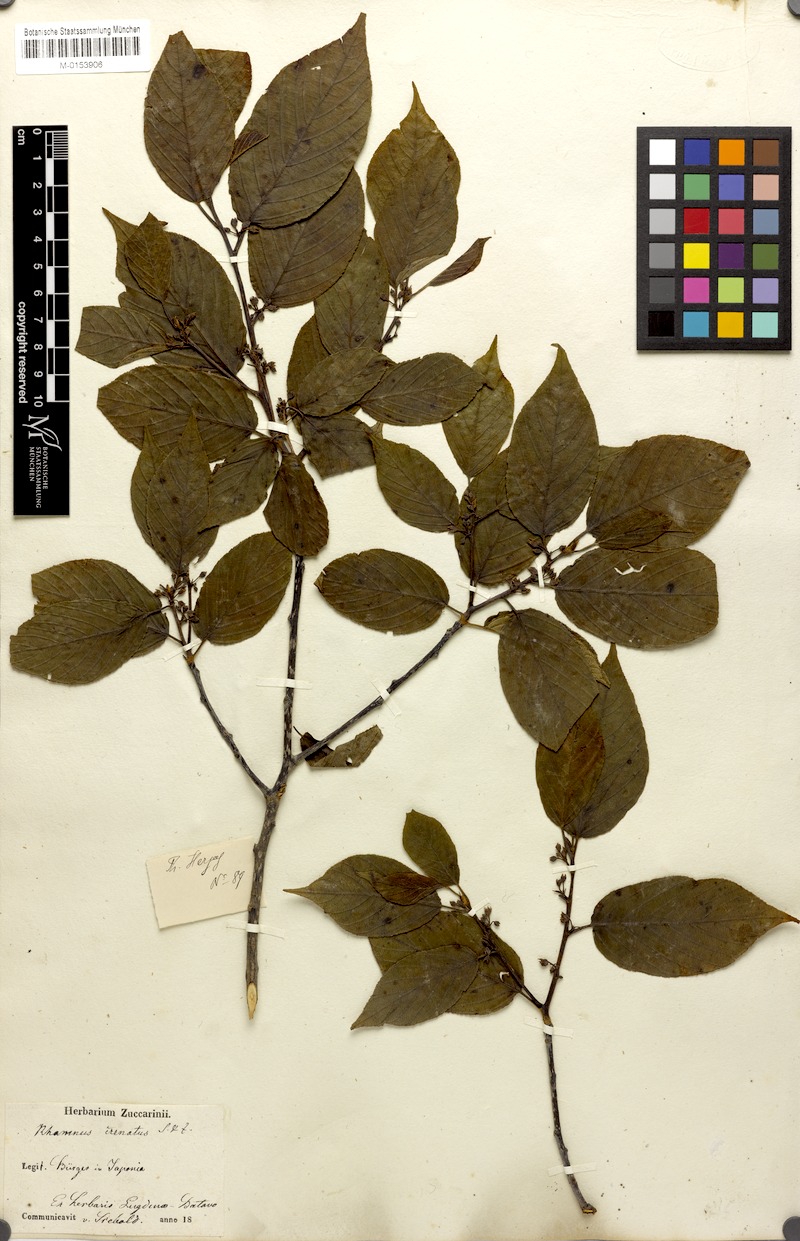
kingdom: Plantae
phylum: Tracheophyta
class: Magnoliopsida
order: Rosales
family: Rhamnaceae
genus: Frangula
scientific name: Frangula crenata
